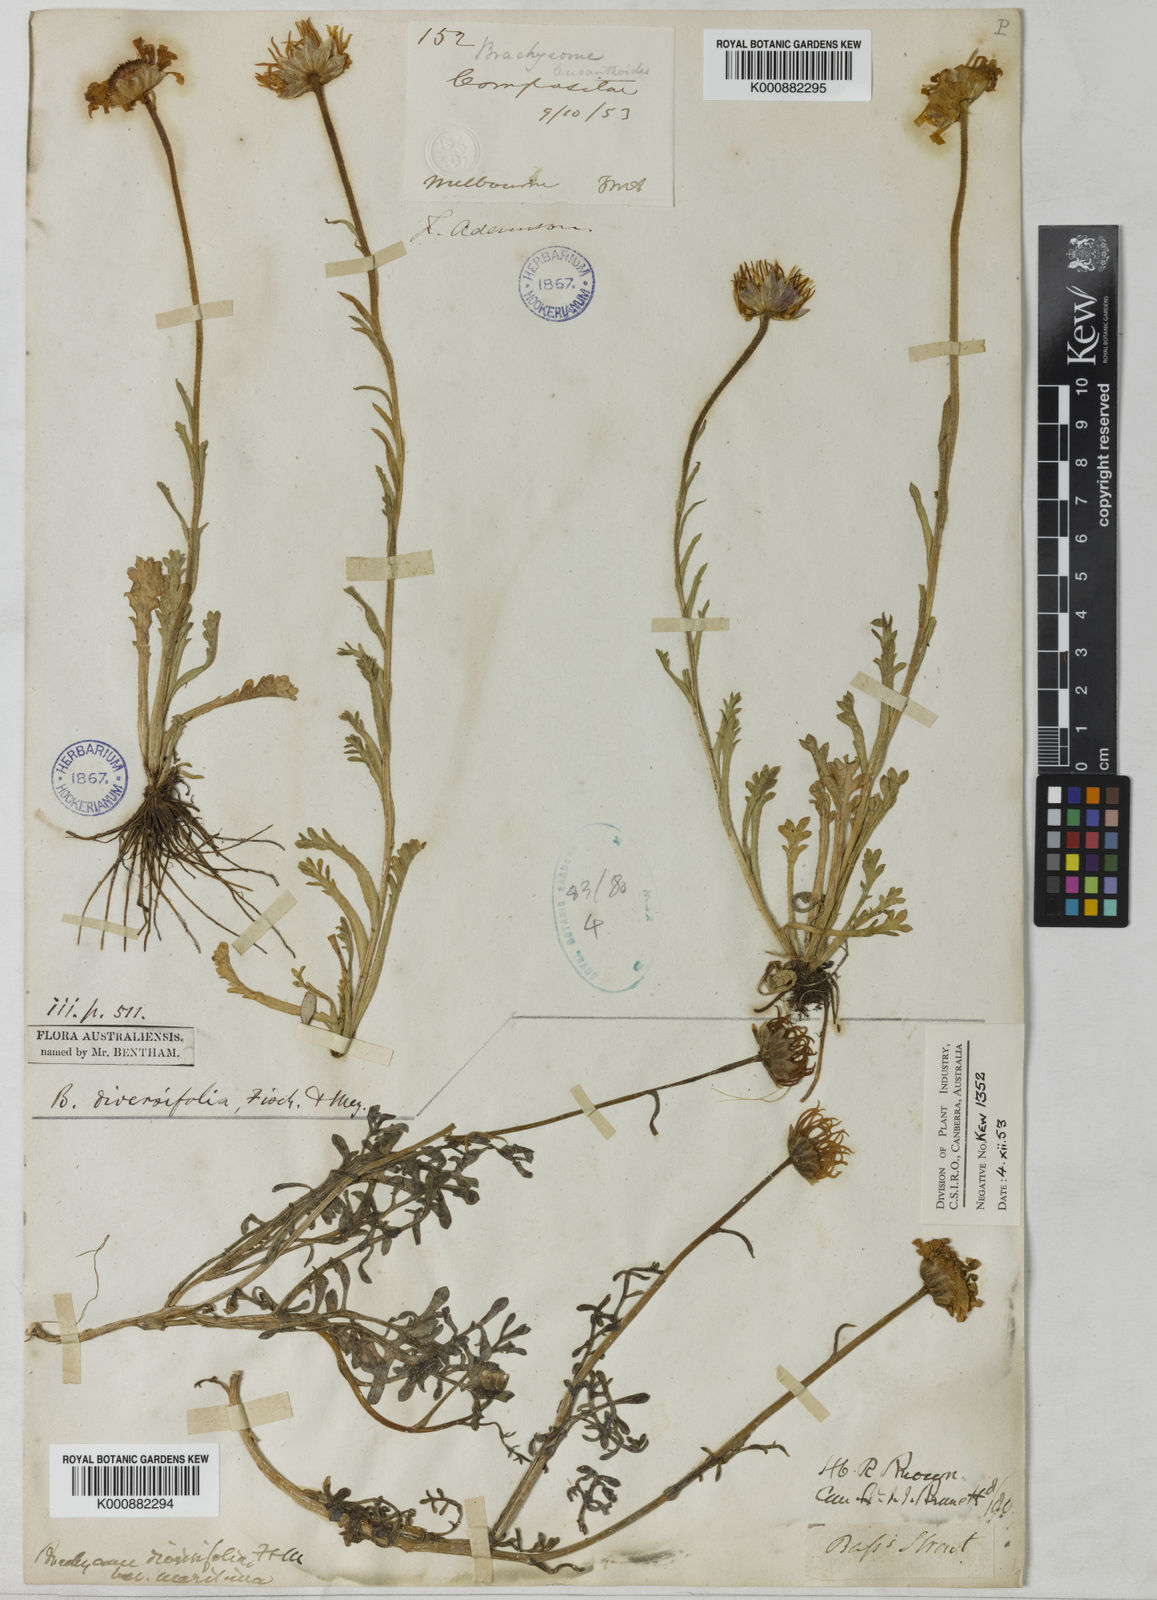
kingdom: Plantae
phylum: Tracheophyta
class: Magnoliopsida
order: Asterales
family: Asteraceae
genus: Brachyscome
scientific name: Brachyscome diversifolia
